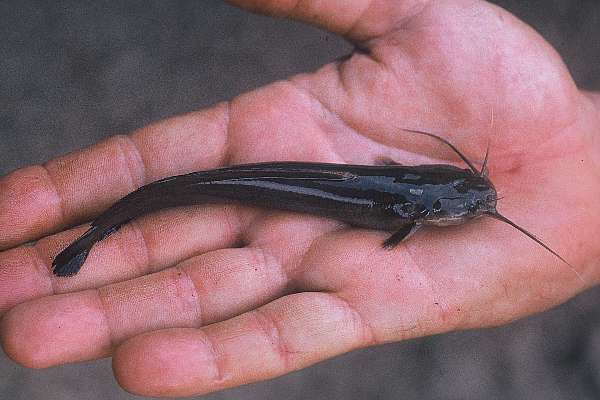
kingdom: Animalia
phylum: Chordata
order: Siluriformes
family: Clariidae
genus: Clarias
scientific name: Clarias
